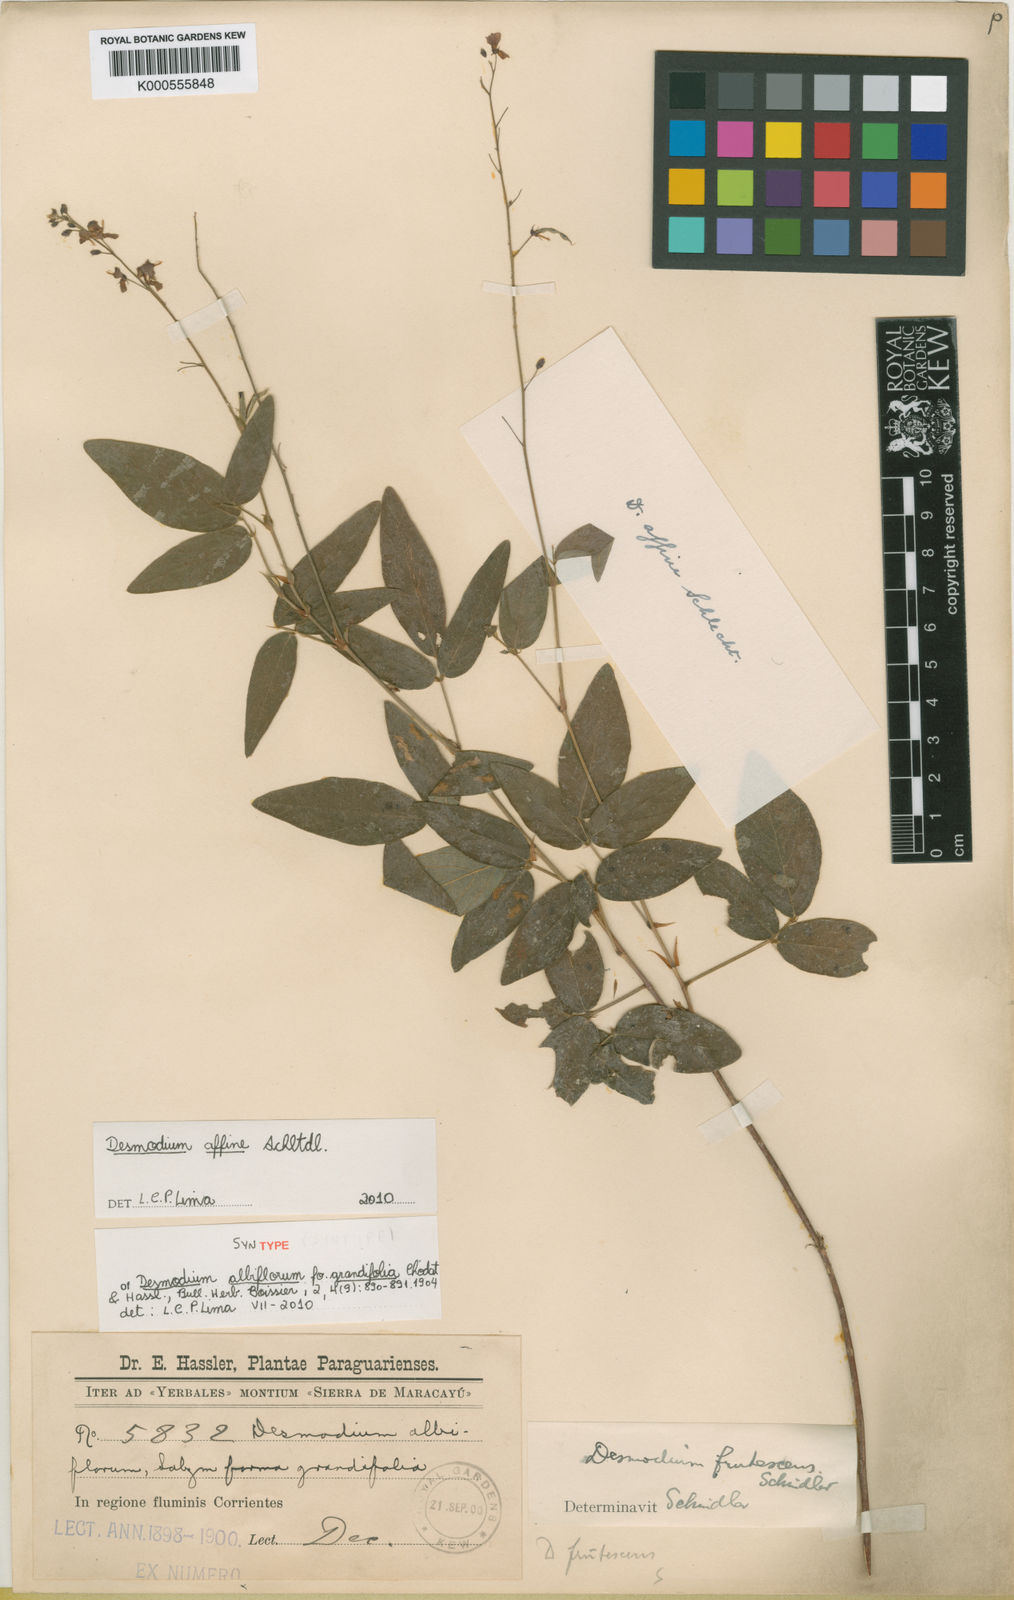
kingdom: Plantae
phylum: Tracheophyta
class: Magnoliopsida
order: Fabales
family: Fabaceae
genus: Desmodium
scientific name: Desmodium affine
